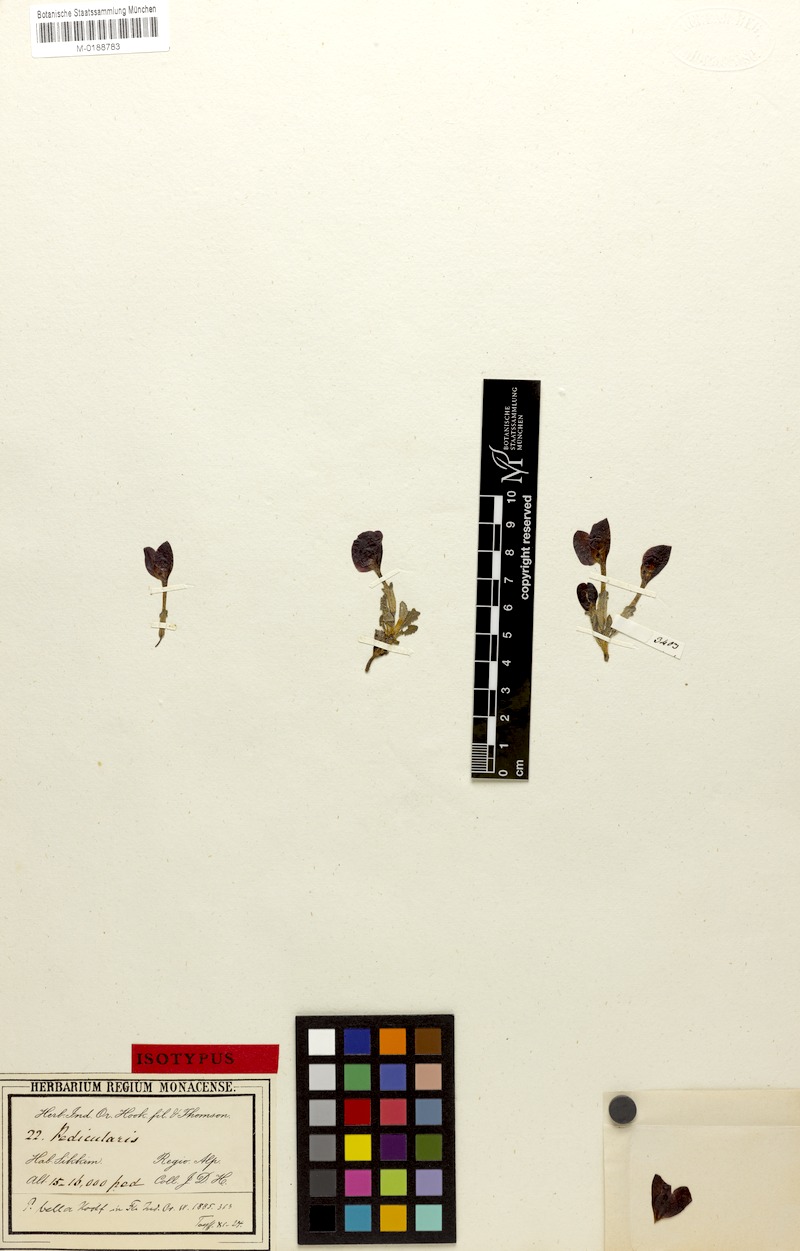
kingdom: Plantae
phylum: Tracheophyta
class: Magnoliopsida
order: Lamiales
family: Orobanchaceae
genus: Pedicularis
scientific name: Pedicularis bella
